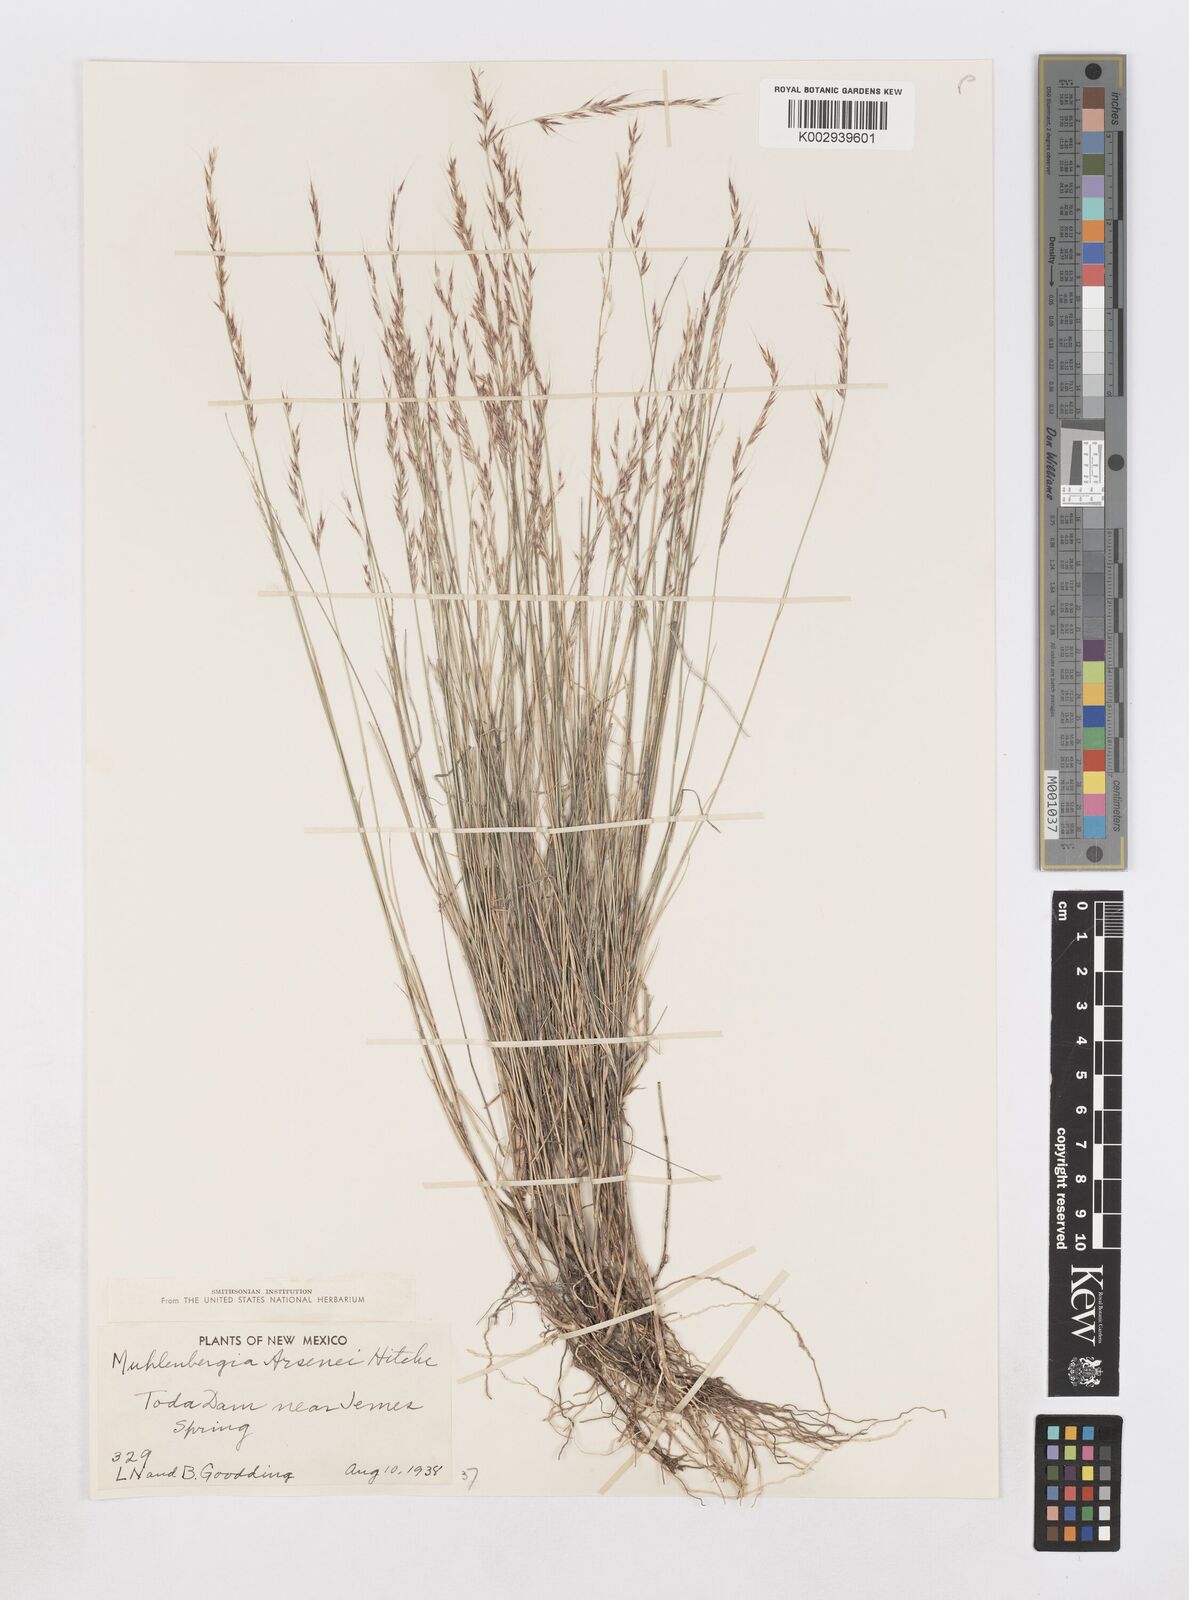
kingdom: Plantae
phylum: Tracheophyta
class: Liliopsida
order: Poales
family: Poaceae
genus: Muhlenbergia
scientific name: Muhlenbergia arsenei
